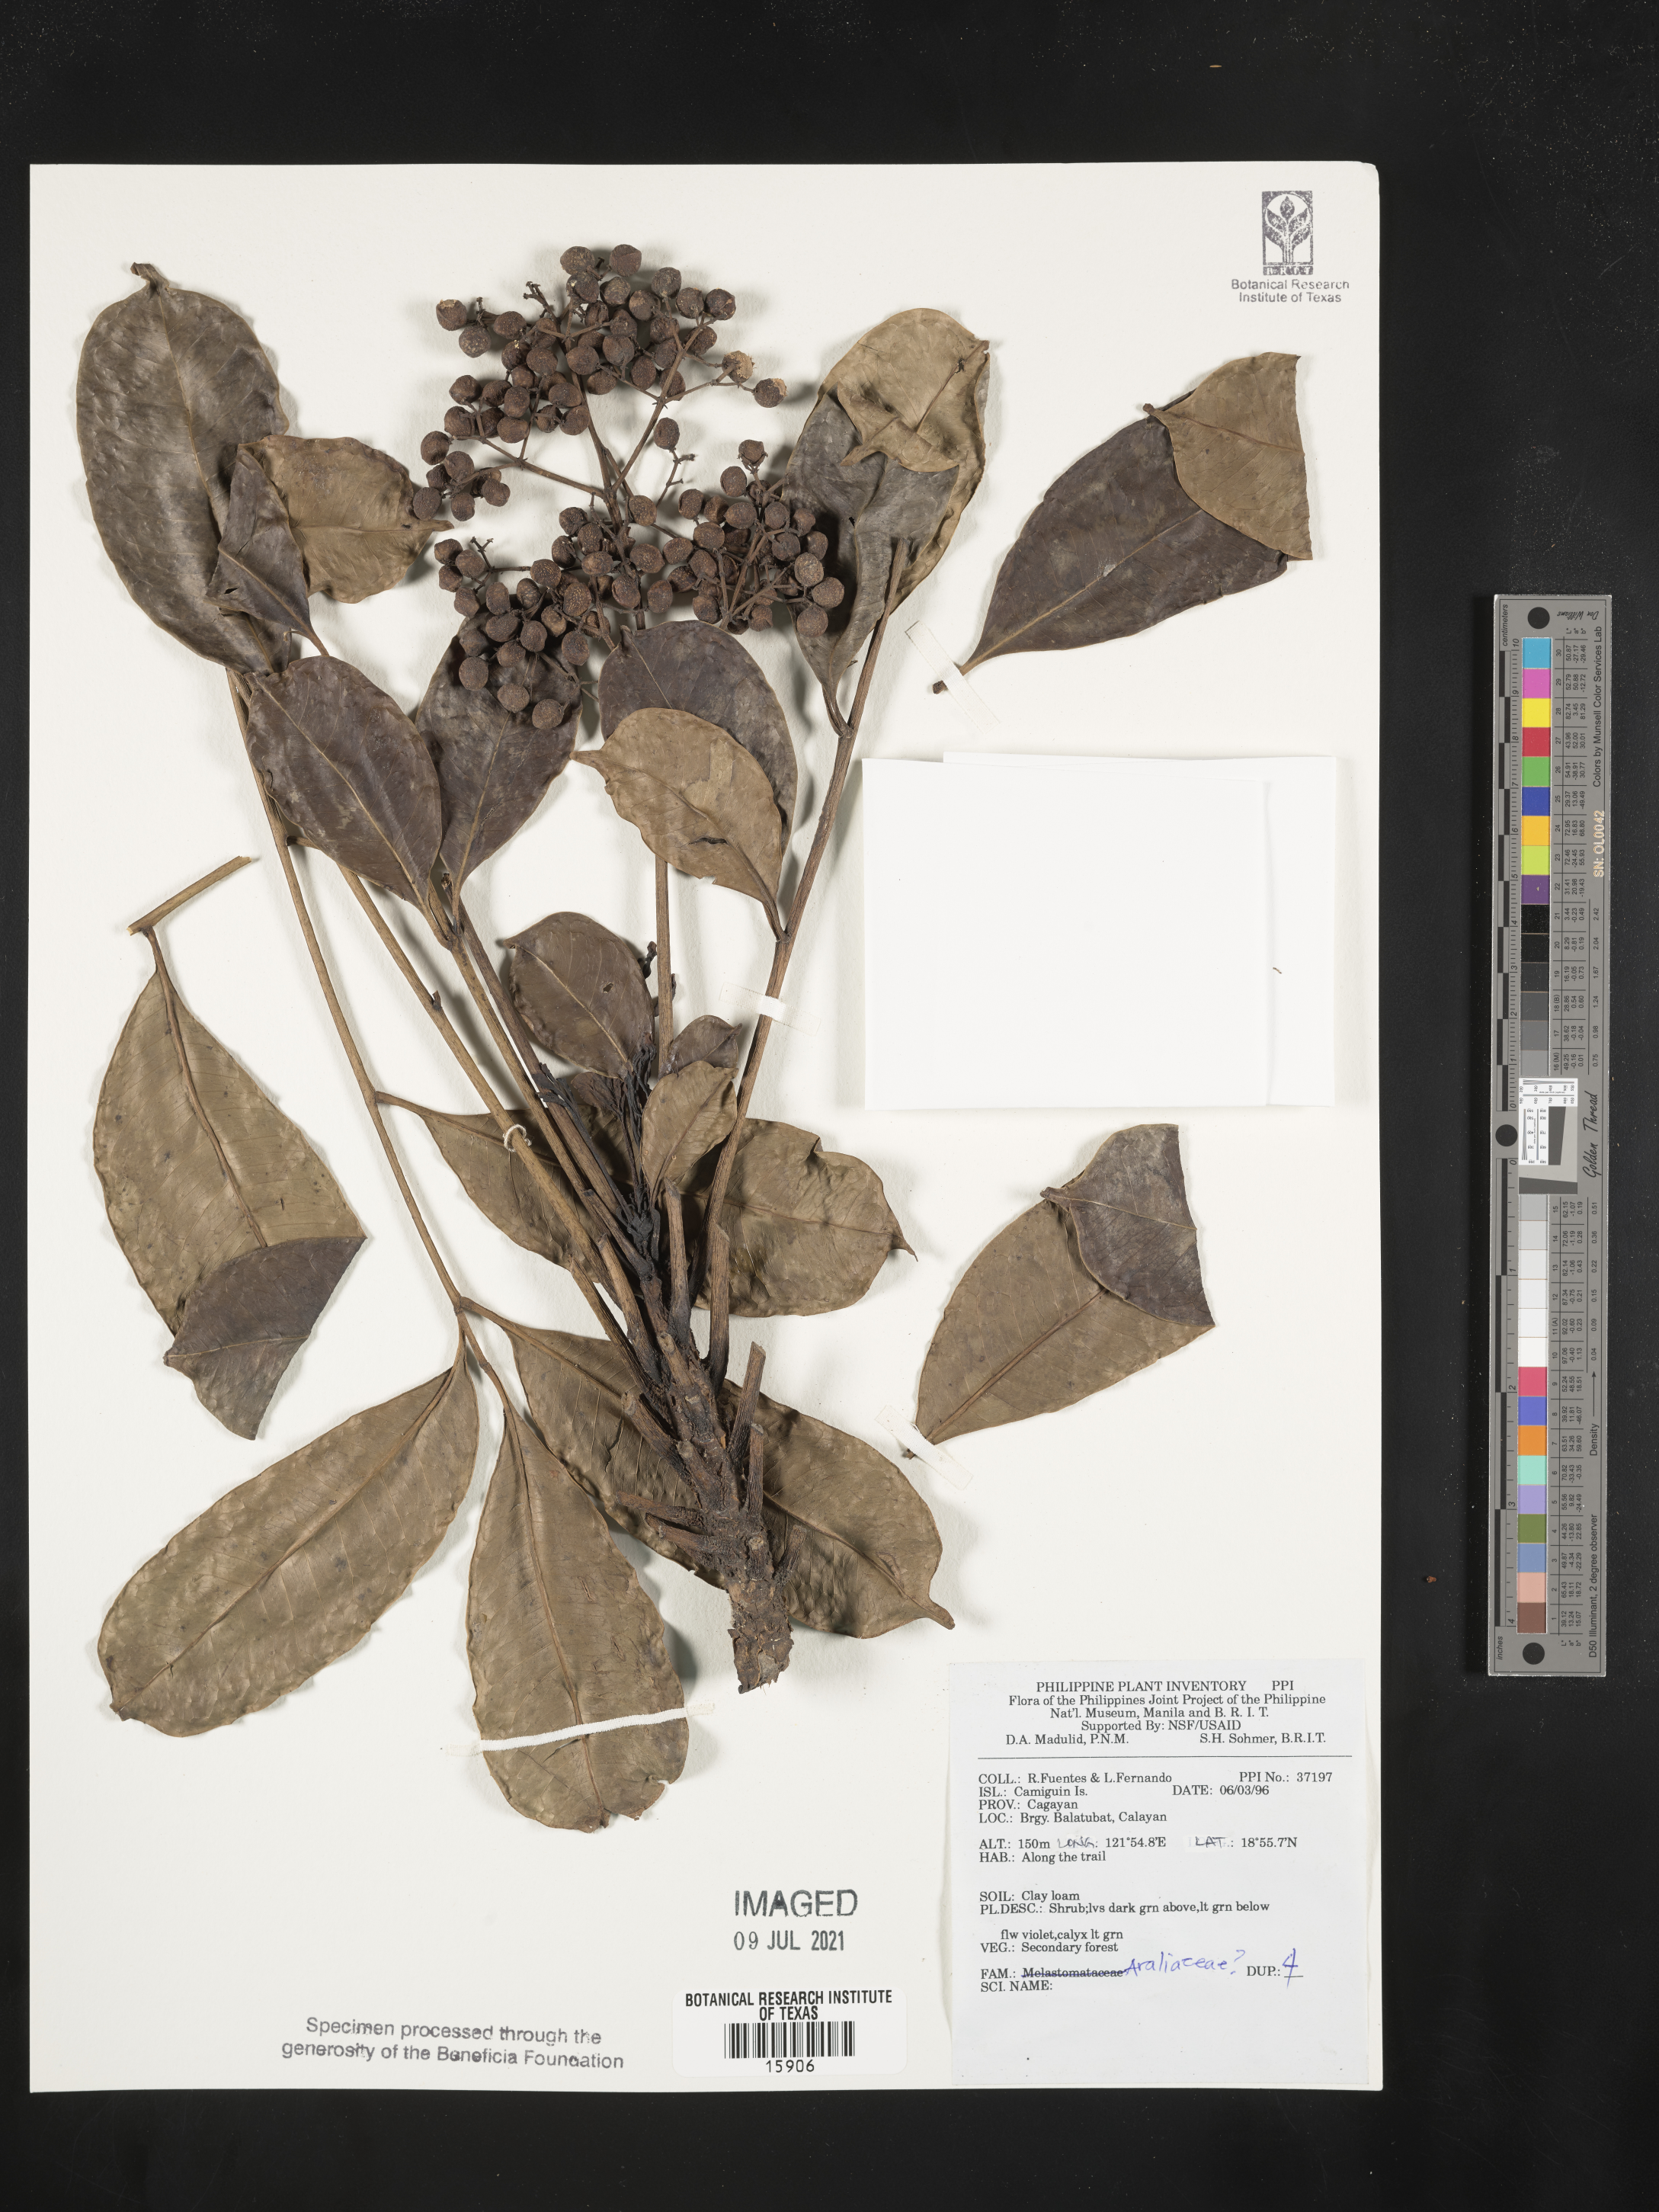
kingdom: Plantae
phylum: Tracheophyta
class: Magnoliopsida
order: Apiales
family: Araliaceae
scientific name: Araliaceae
